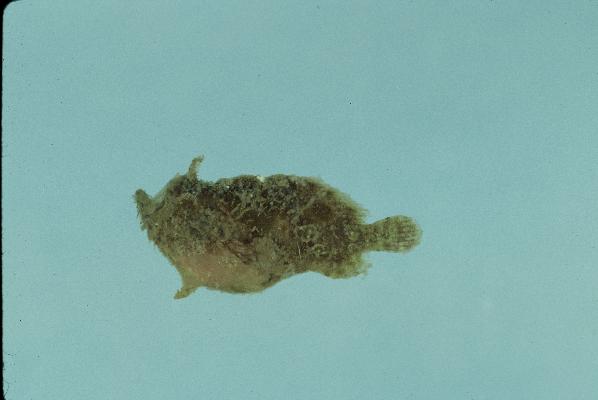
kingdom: Animalia
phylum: Chordata
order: Lophiiformes
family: Antennariidae
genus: Antennatus
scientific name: Antennatus coccineus
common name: Scarlet frogfish
